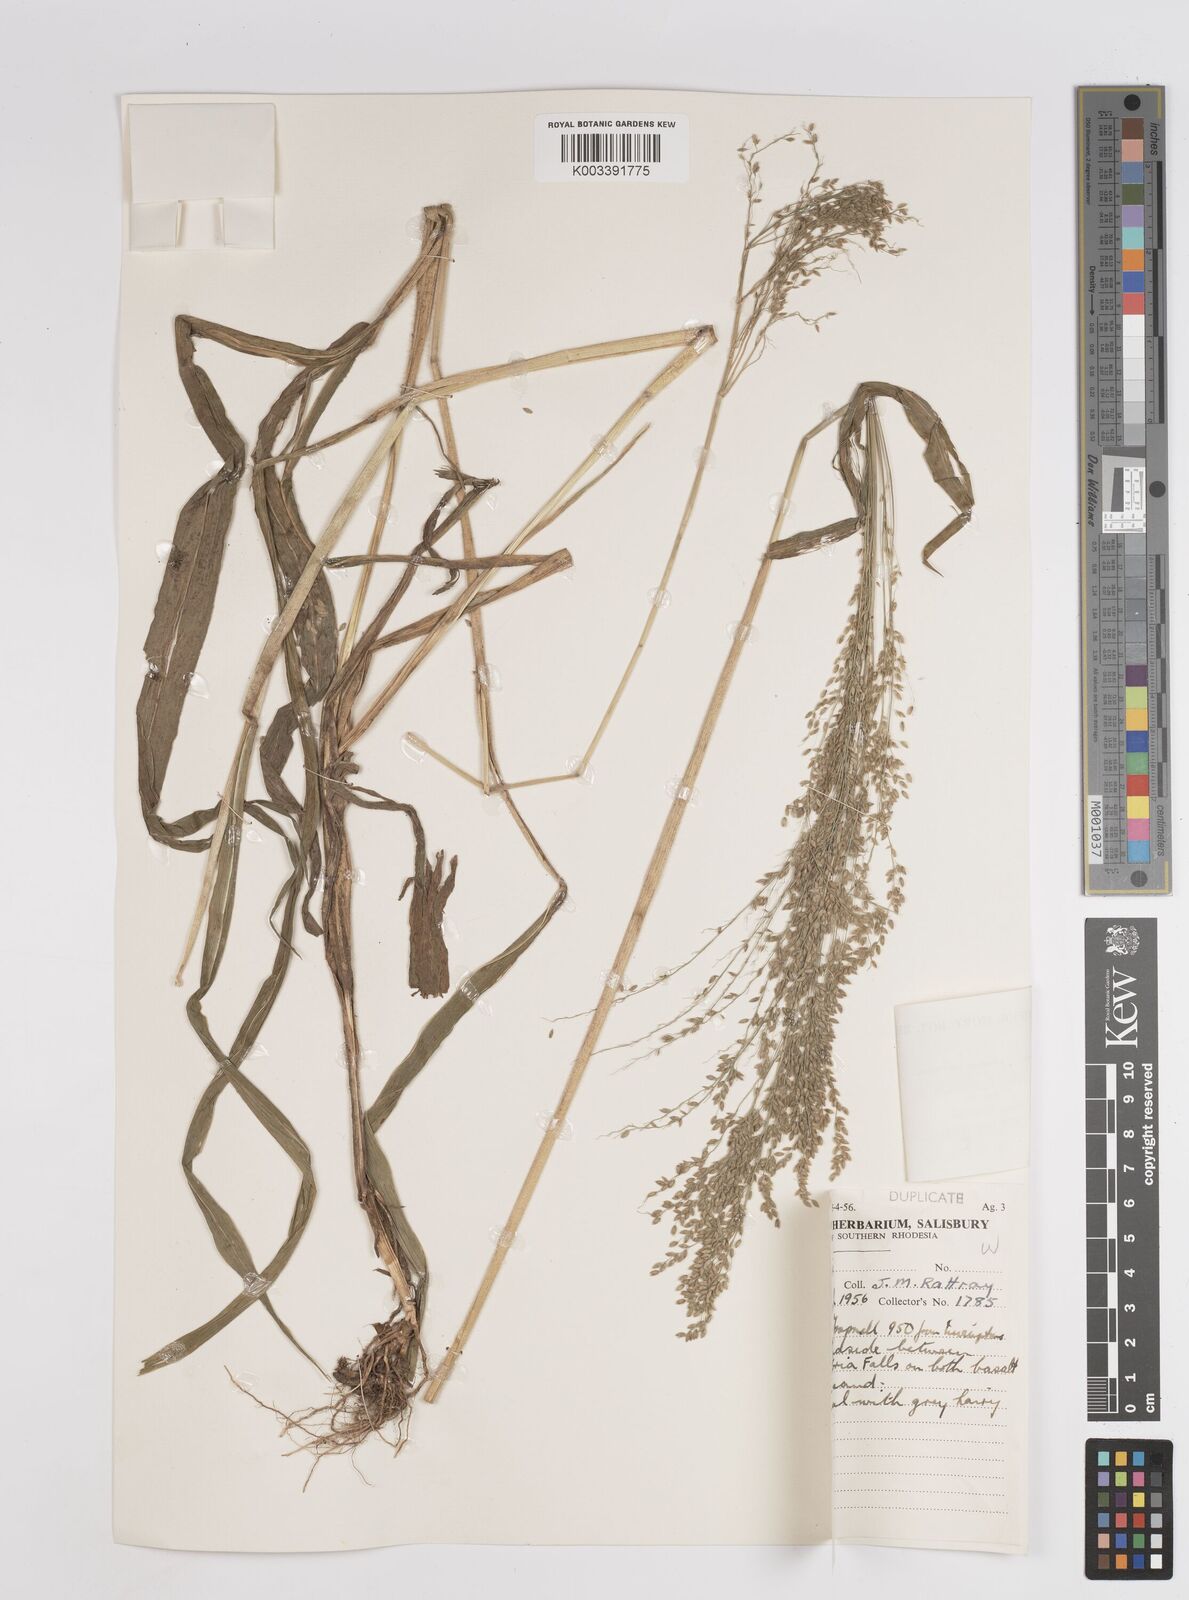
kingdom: Plantae
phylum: Tracheophyta
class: Liliopsida
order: Poales
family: Poaceae
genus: Megathyrsus
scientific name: Megathyrsus maximus
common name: Guineagrass
